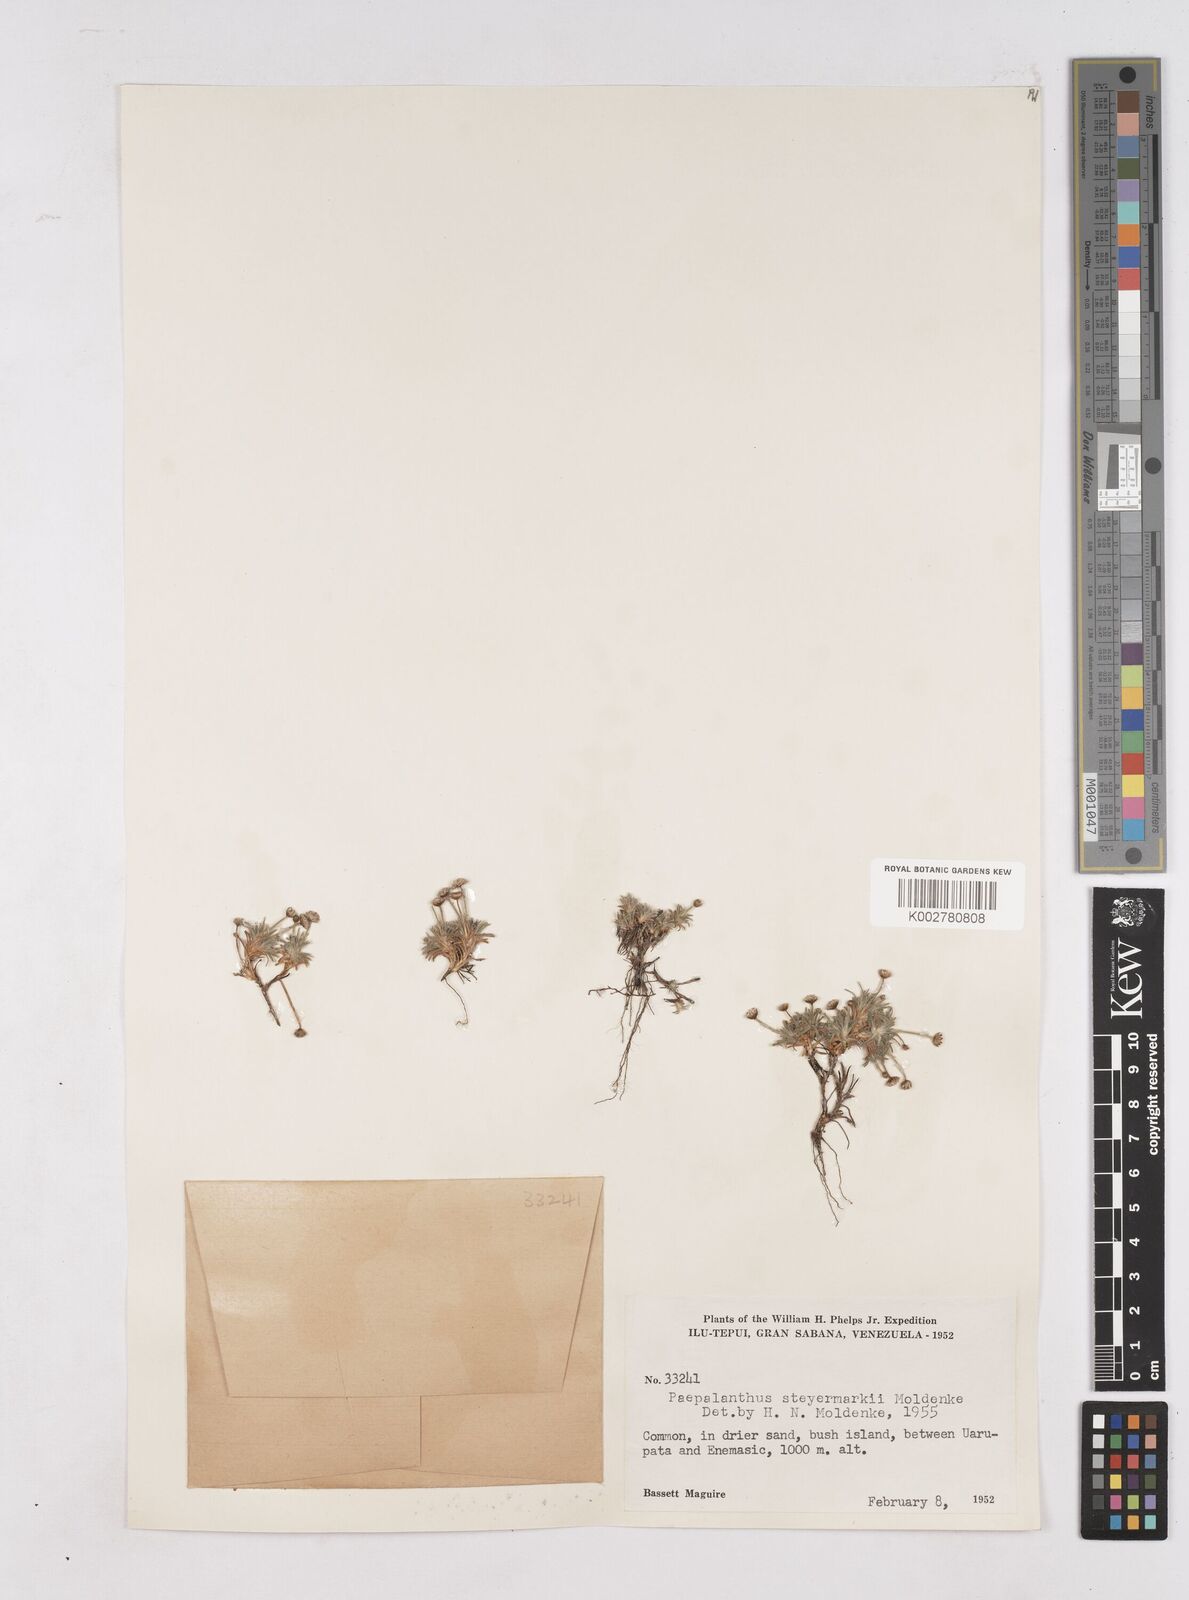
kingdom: Plantae
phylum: Tracheophyta
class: Liliopsida
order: Poales
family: Eriocaulaceae
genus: Paepalanthus
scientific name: Paepalanthus dichotomus
